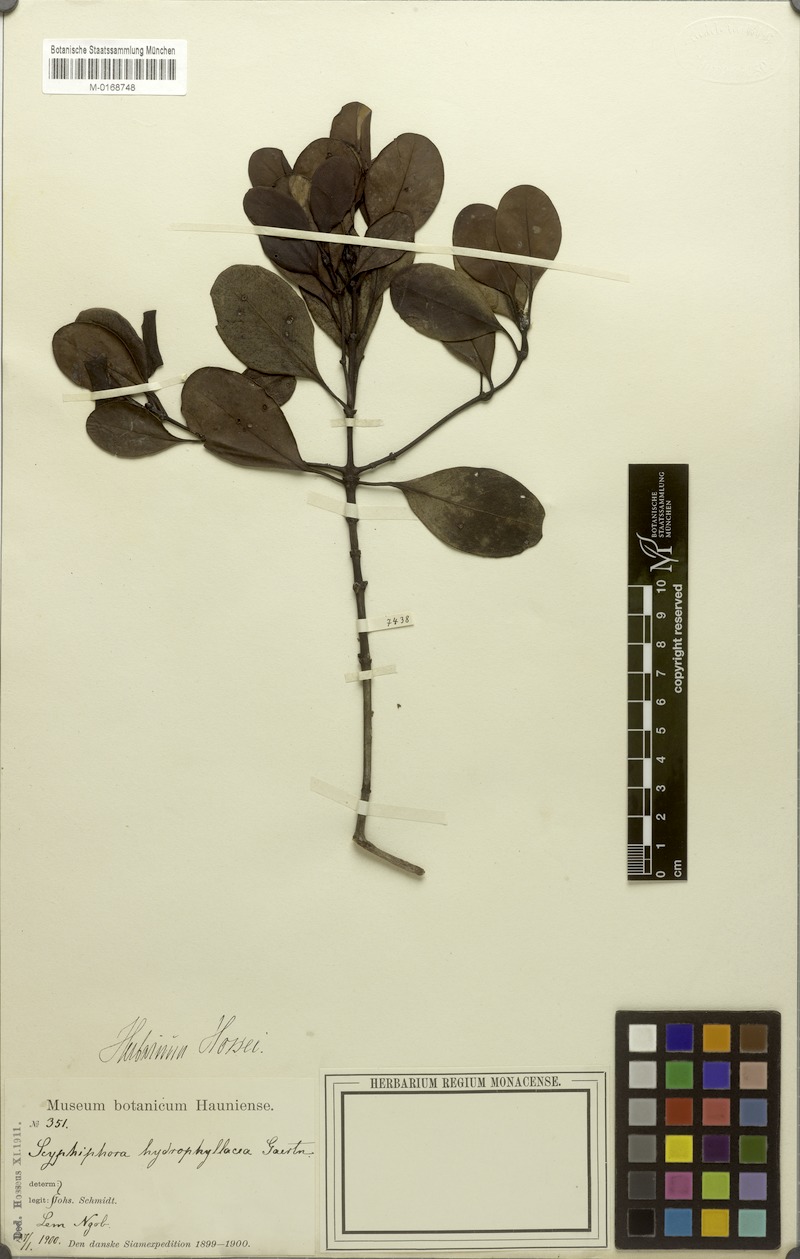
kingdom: Plantae
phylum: Tracheophyta
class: Magnoliopsida
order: Gentianales
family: Rubiaceae
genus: Scyphiphora
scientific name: Scyphiphora hydrophylacea
